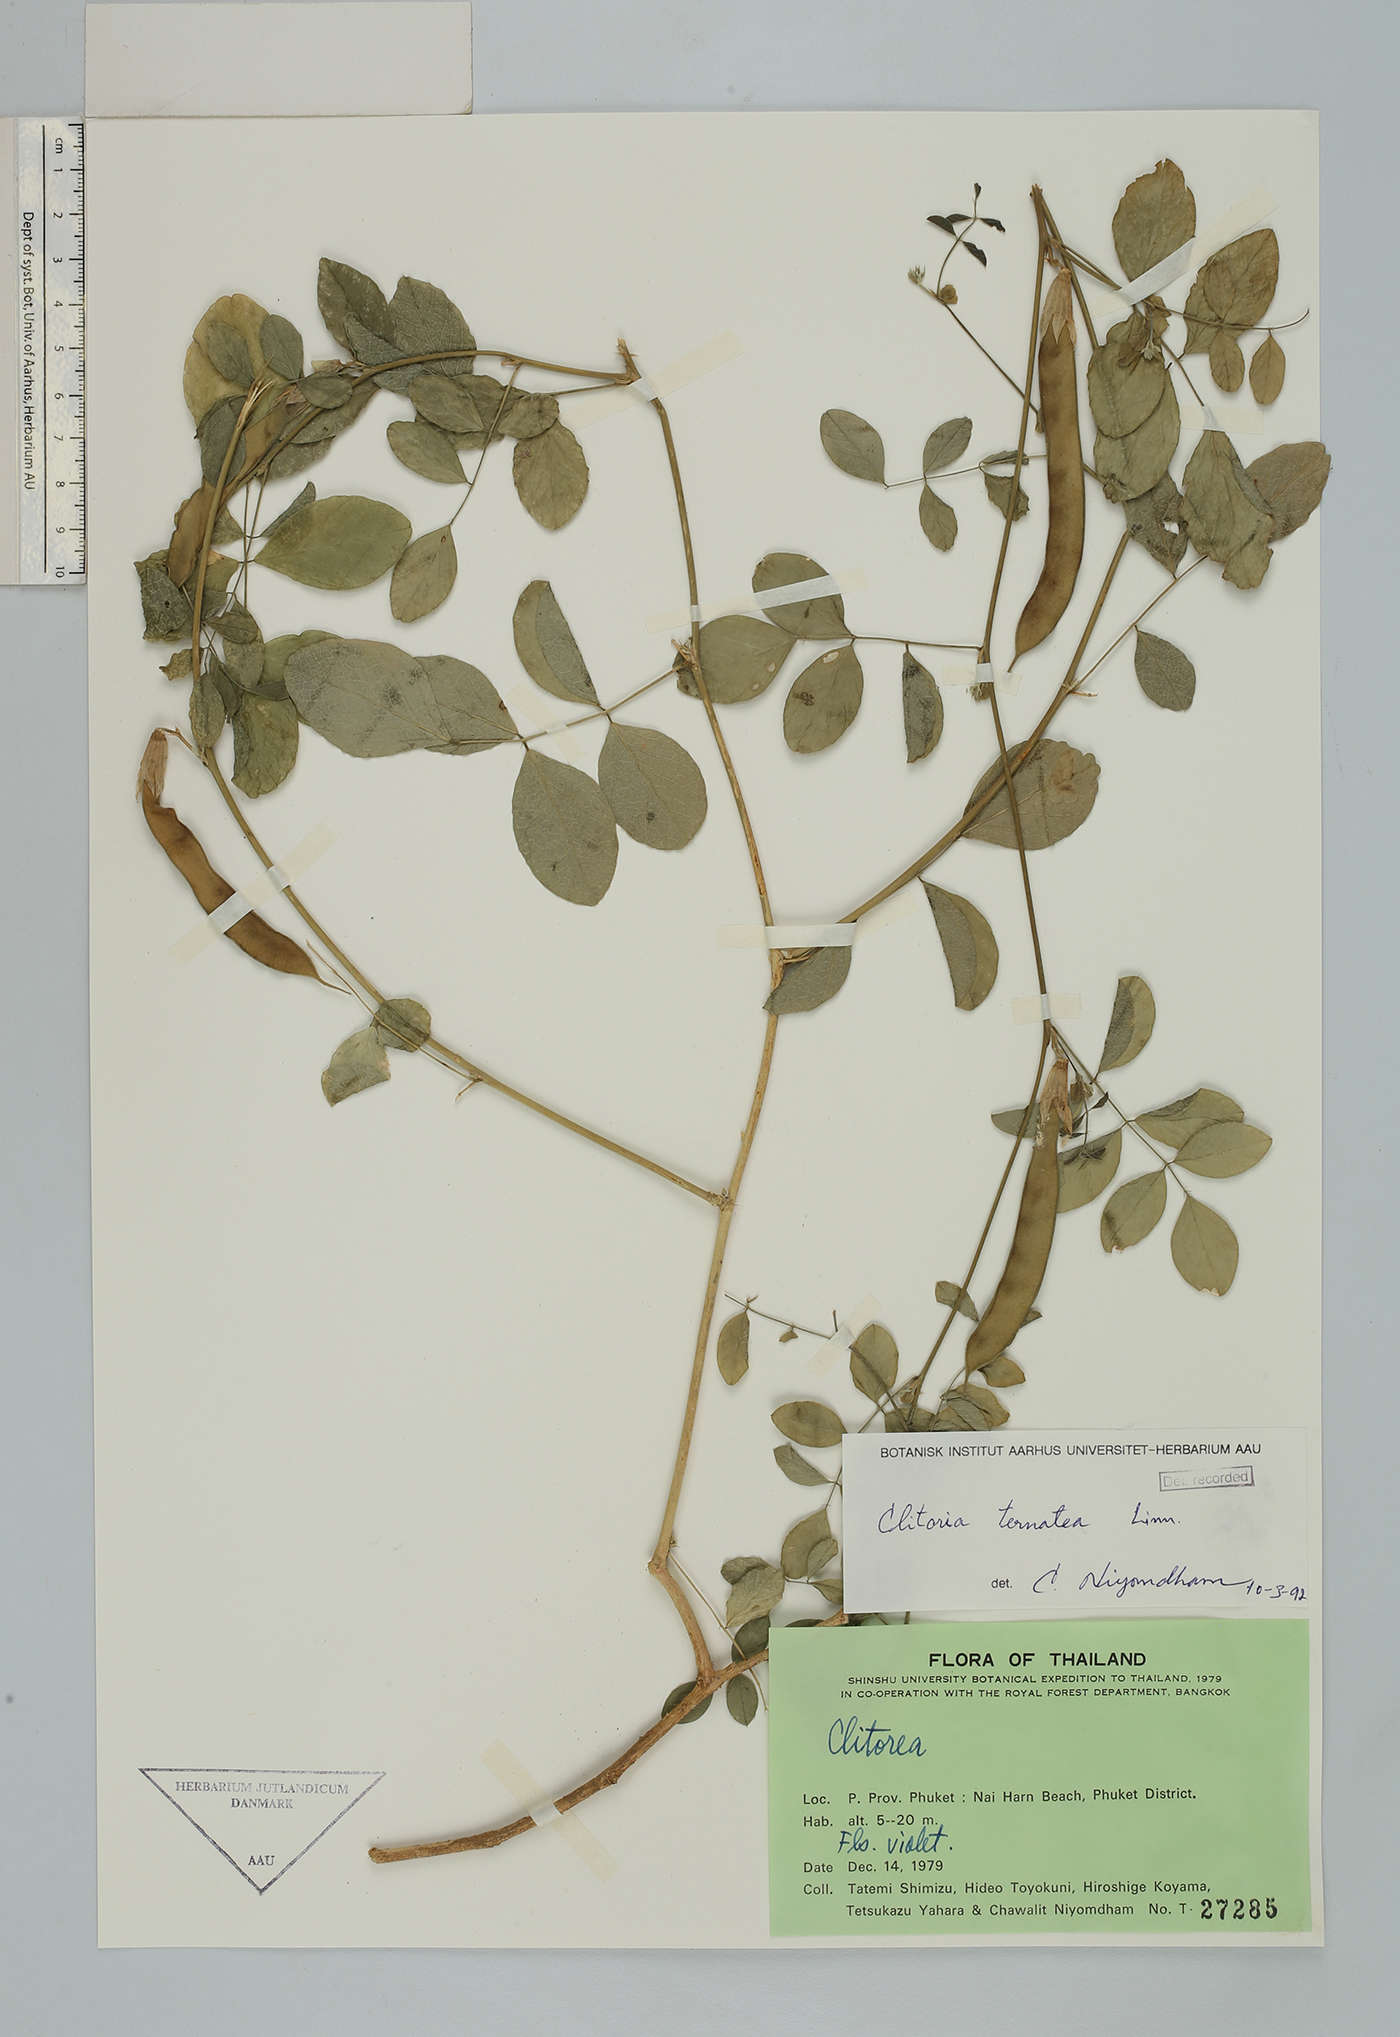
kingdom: Plantae
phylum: Tracheophyta
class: Magnoliopsida
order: Fabales
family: Fabaceae
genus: Clitoria
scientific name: Clitoria ternatea
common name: Asian pigeonwings
